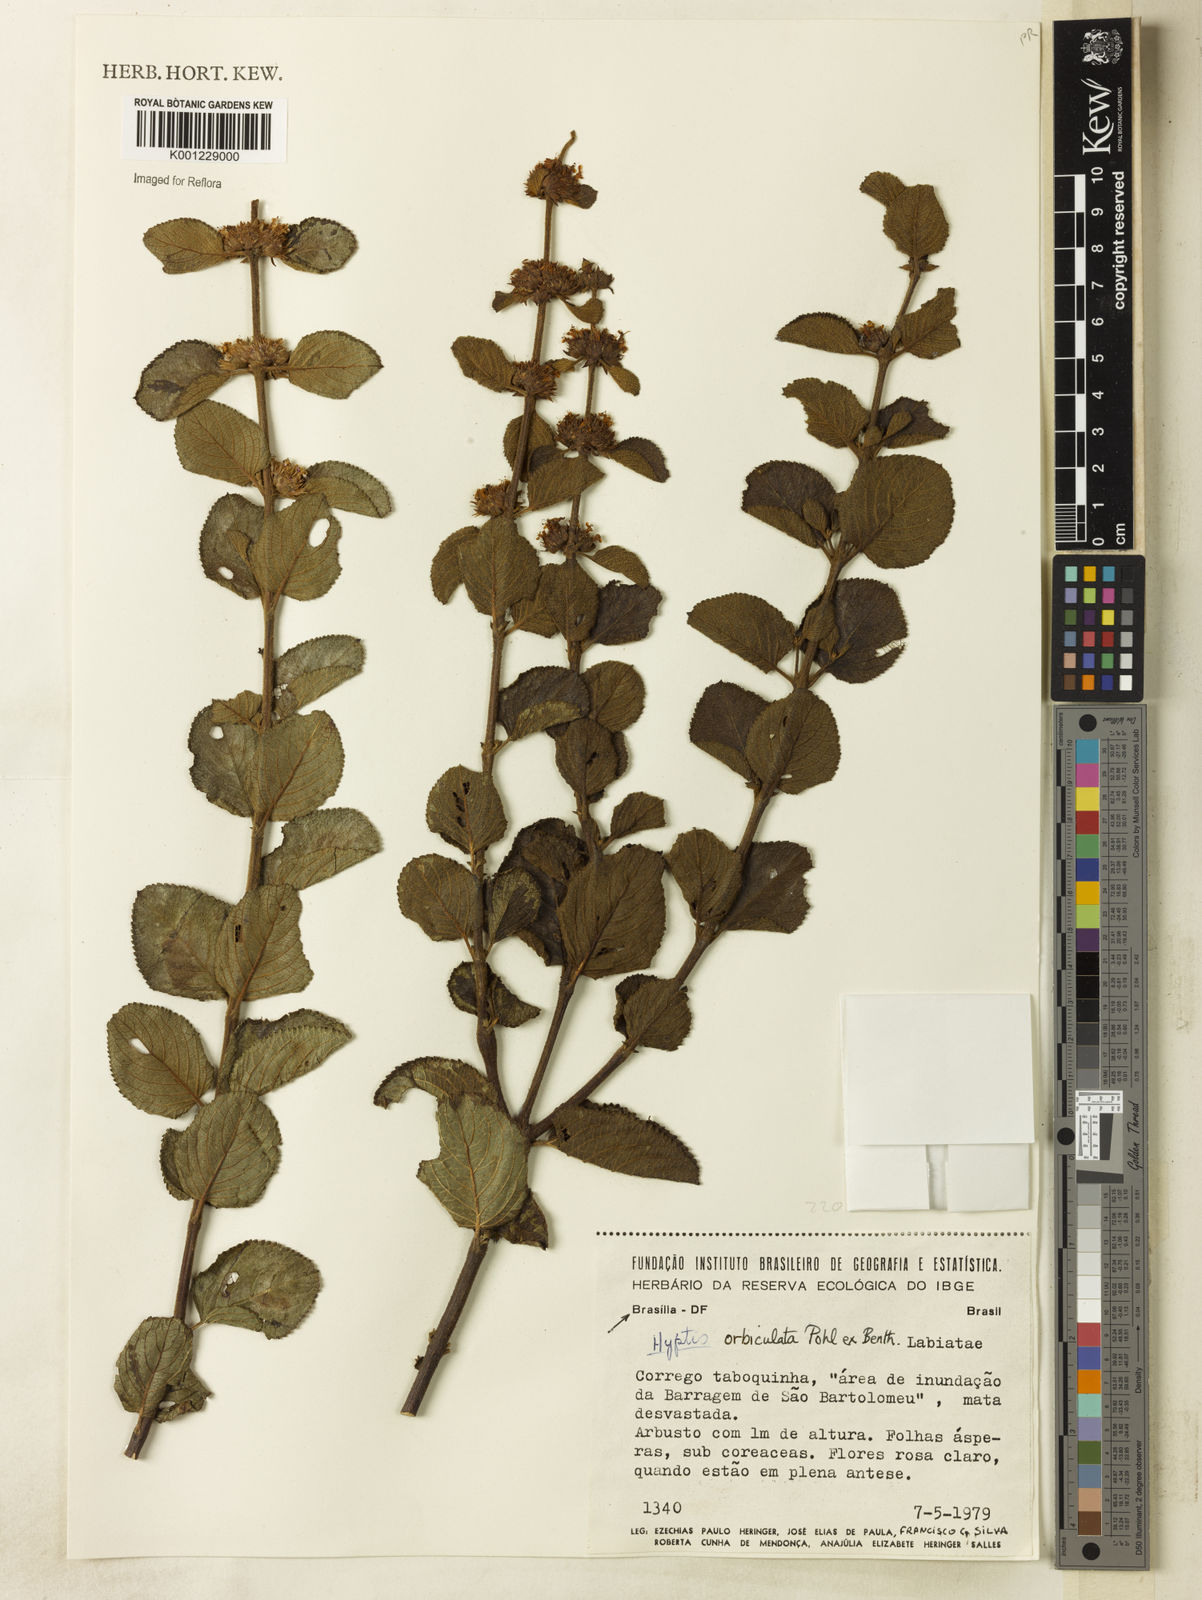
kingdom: Plantae
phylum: Tracheophyta
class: Magnoliopsida
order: Lamiales
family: Lamiaceae
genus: Hyptis
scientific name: Hyptis orbiculata
